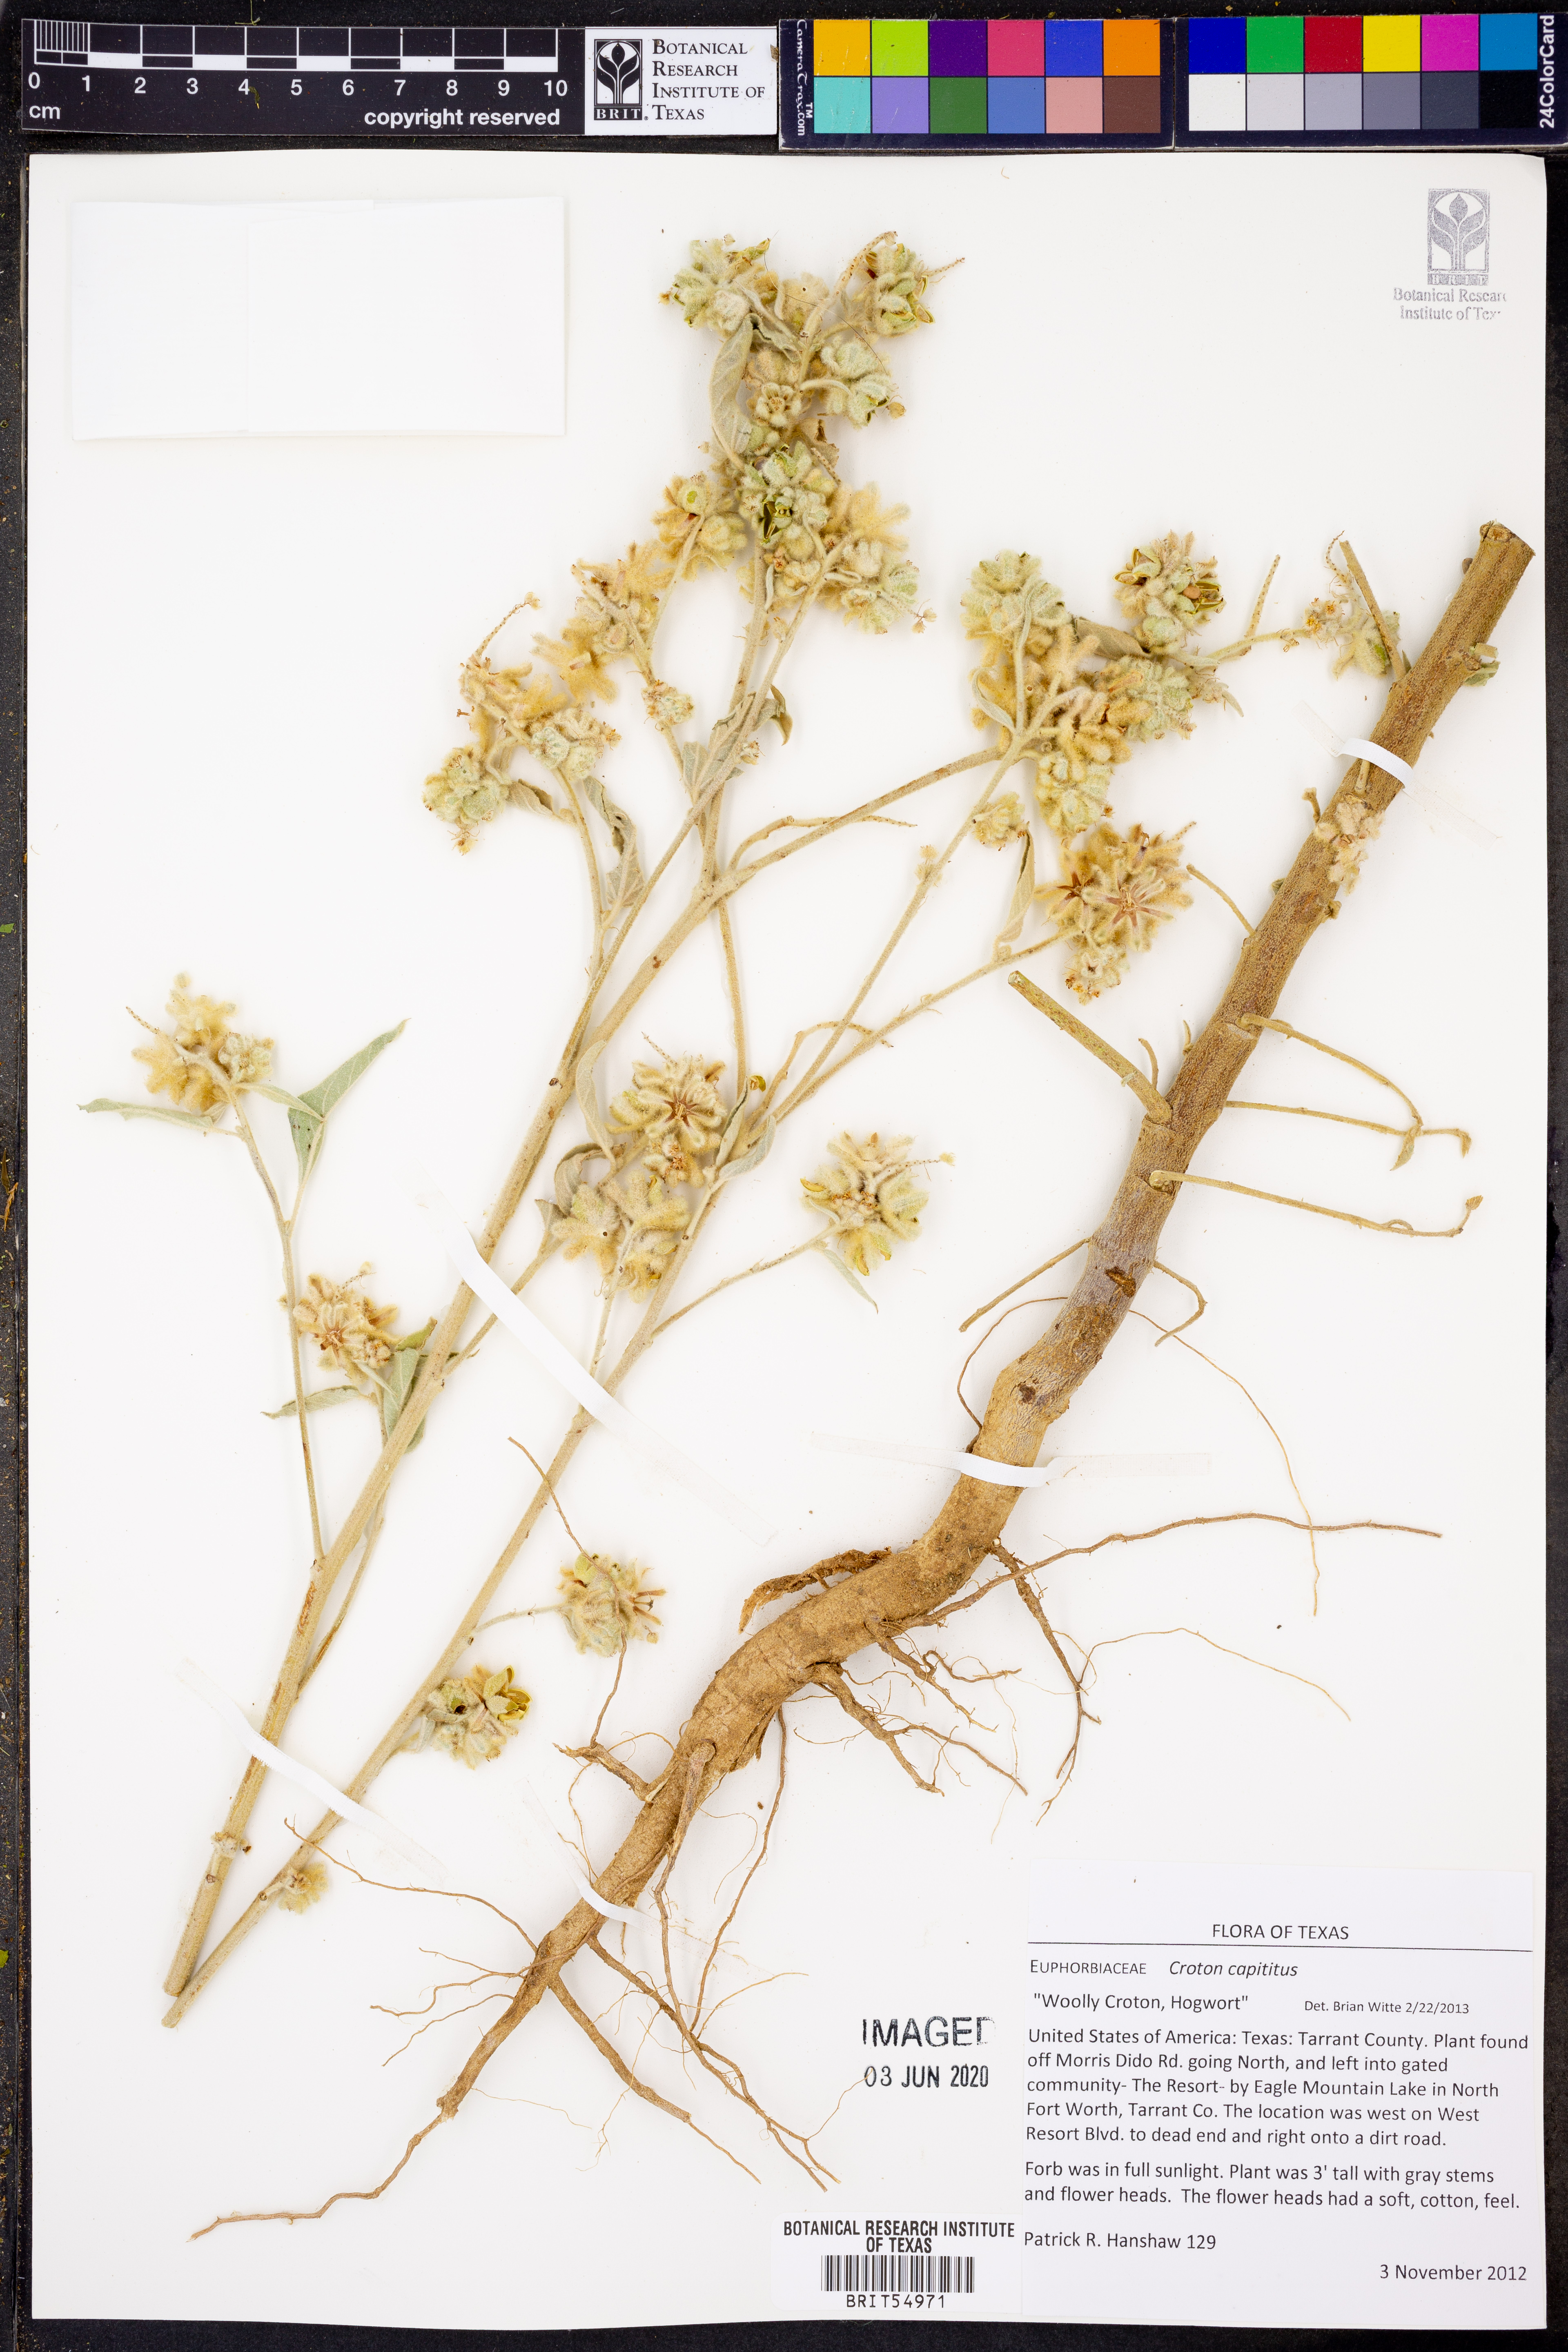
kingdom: Plantae
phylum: Tracheophyta
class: Magnoliopsida
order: Malpighiales
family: Euphorbiaceae
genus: Croton
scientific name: Croton capitatus
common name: Woolly croton
